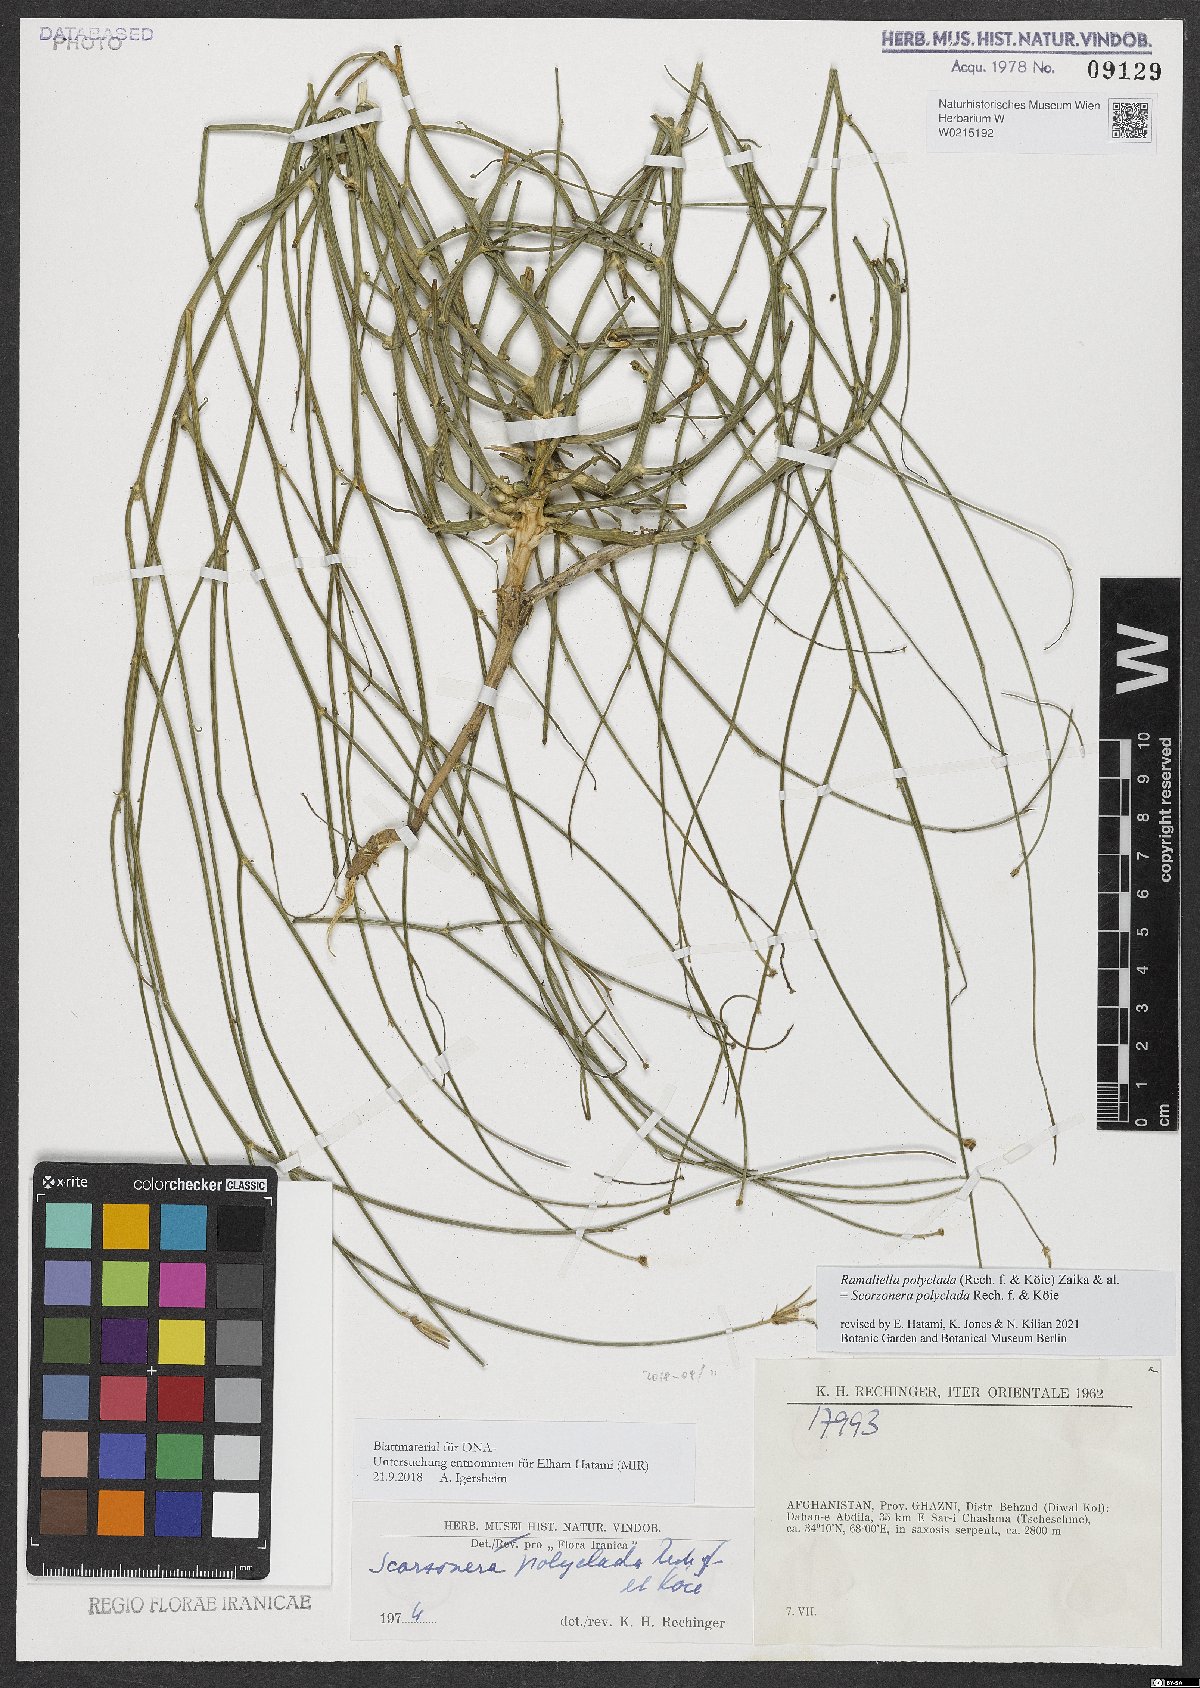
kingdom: Plantae
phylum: Tracheophyta
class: Magnoliopsida
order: Asterales
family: Asteraceae
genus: Ramaliella
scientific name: Ramaliella polyclada
